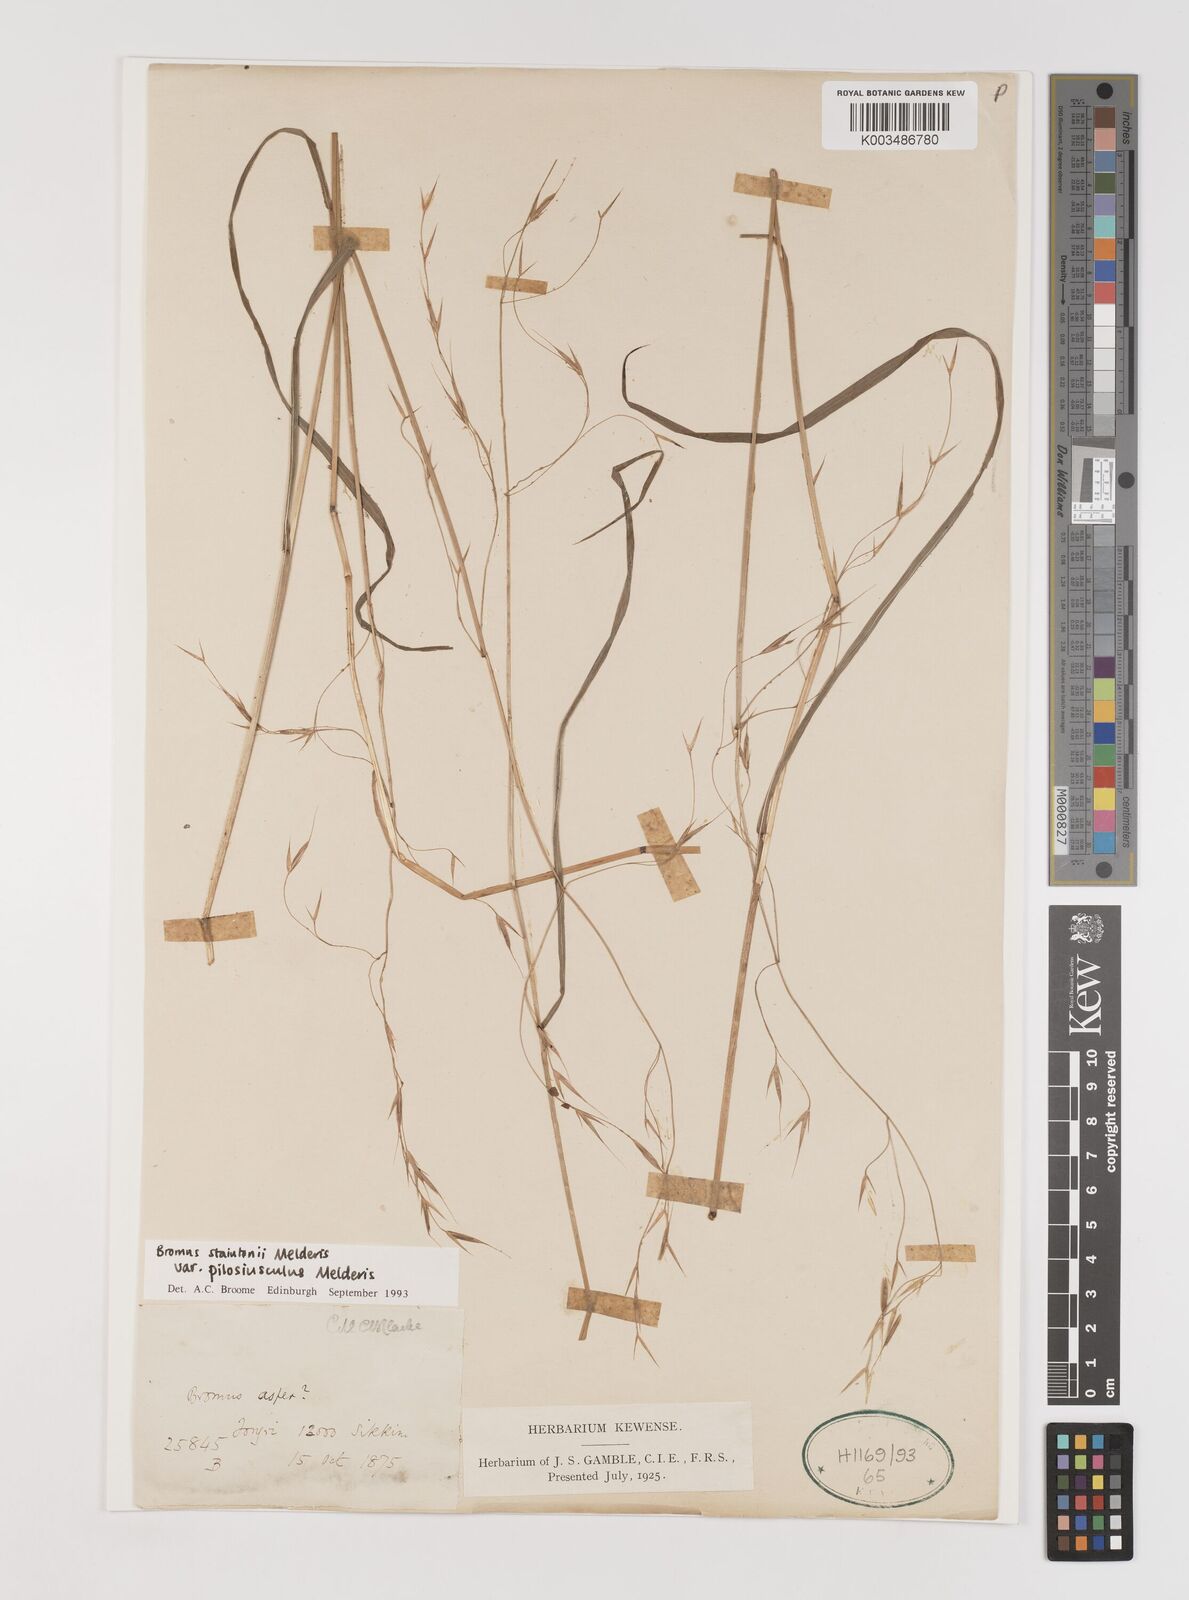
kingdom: Plantae
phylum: Tracheophyta
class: Liliopsida
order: Poales
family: Poaceae
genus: Bromus
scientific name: Bromus staintonii
